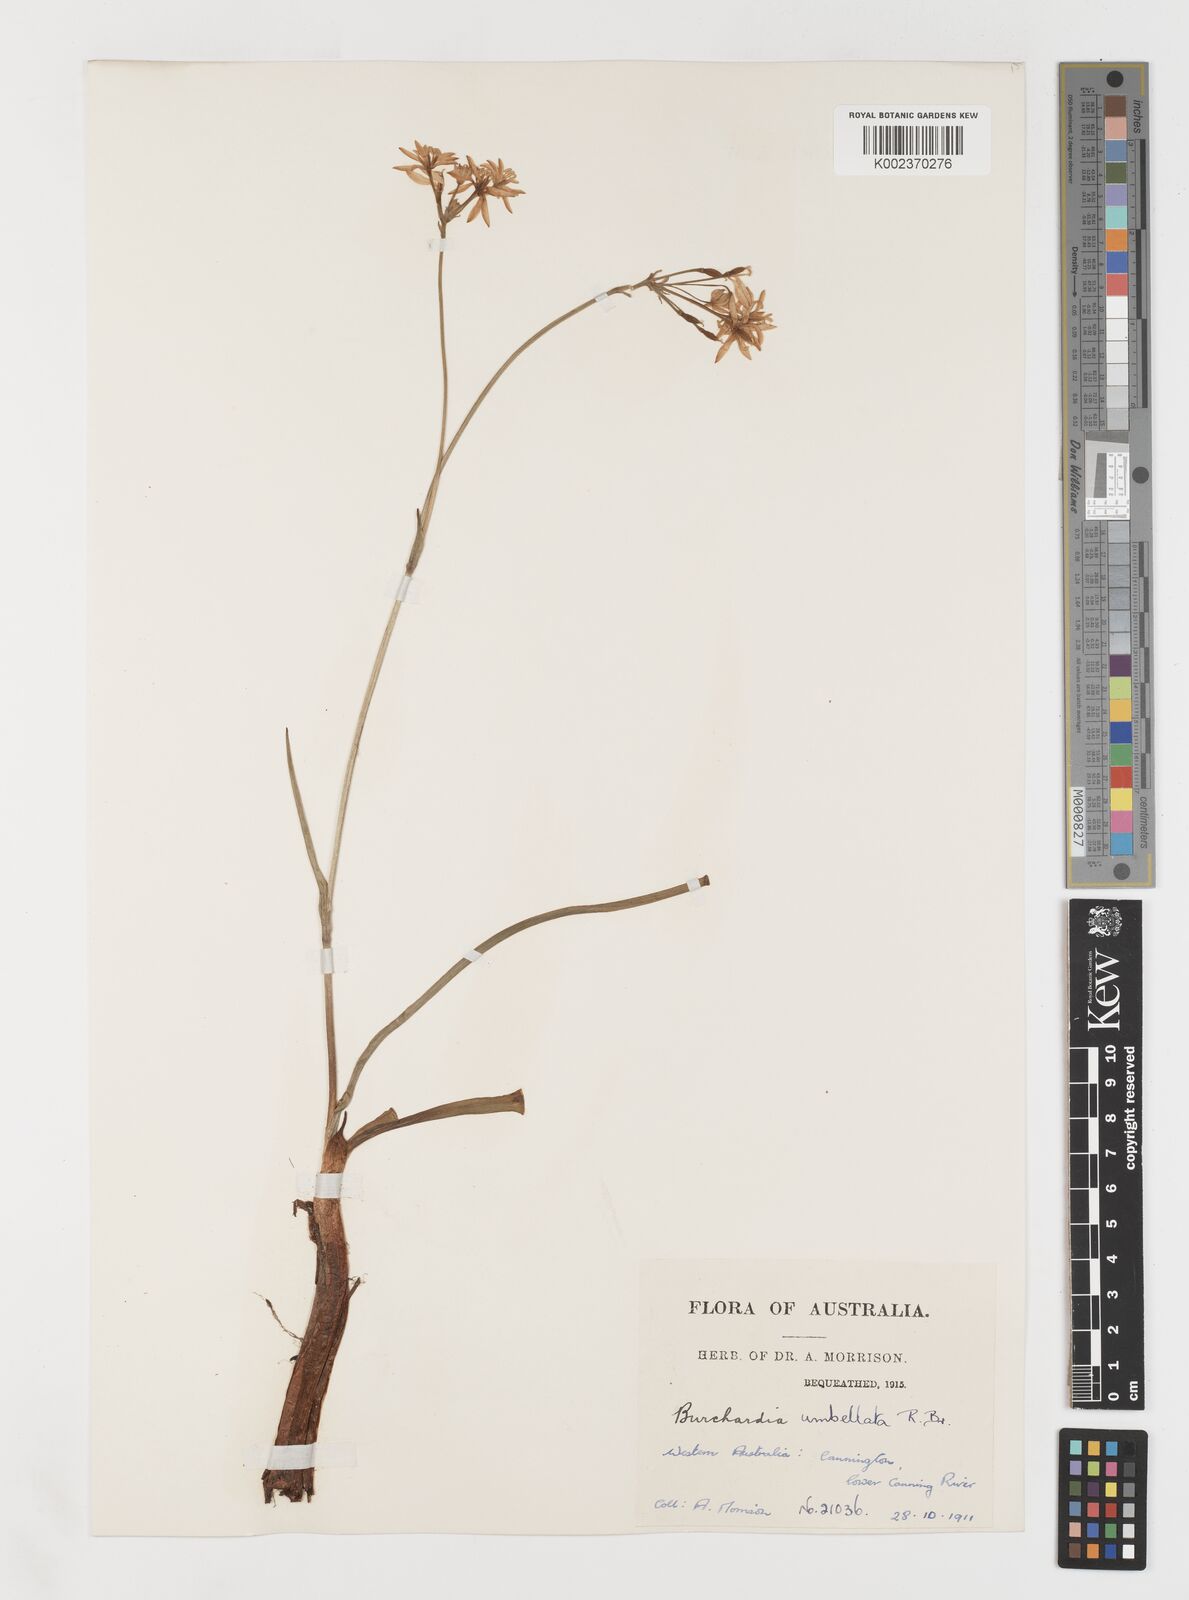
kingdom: Plantae
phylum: Tracheophyta
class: Liliopsida
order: Liliales
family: Colchicaceae
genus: Burchardia
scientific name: Burchardia umbellata
